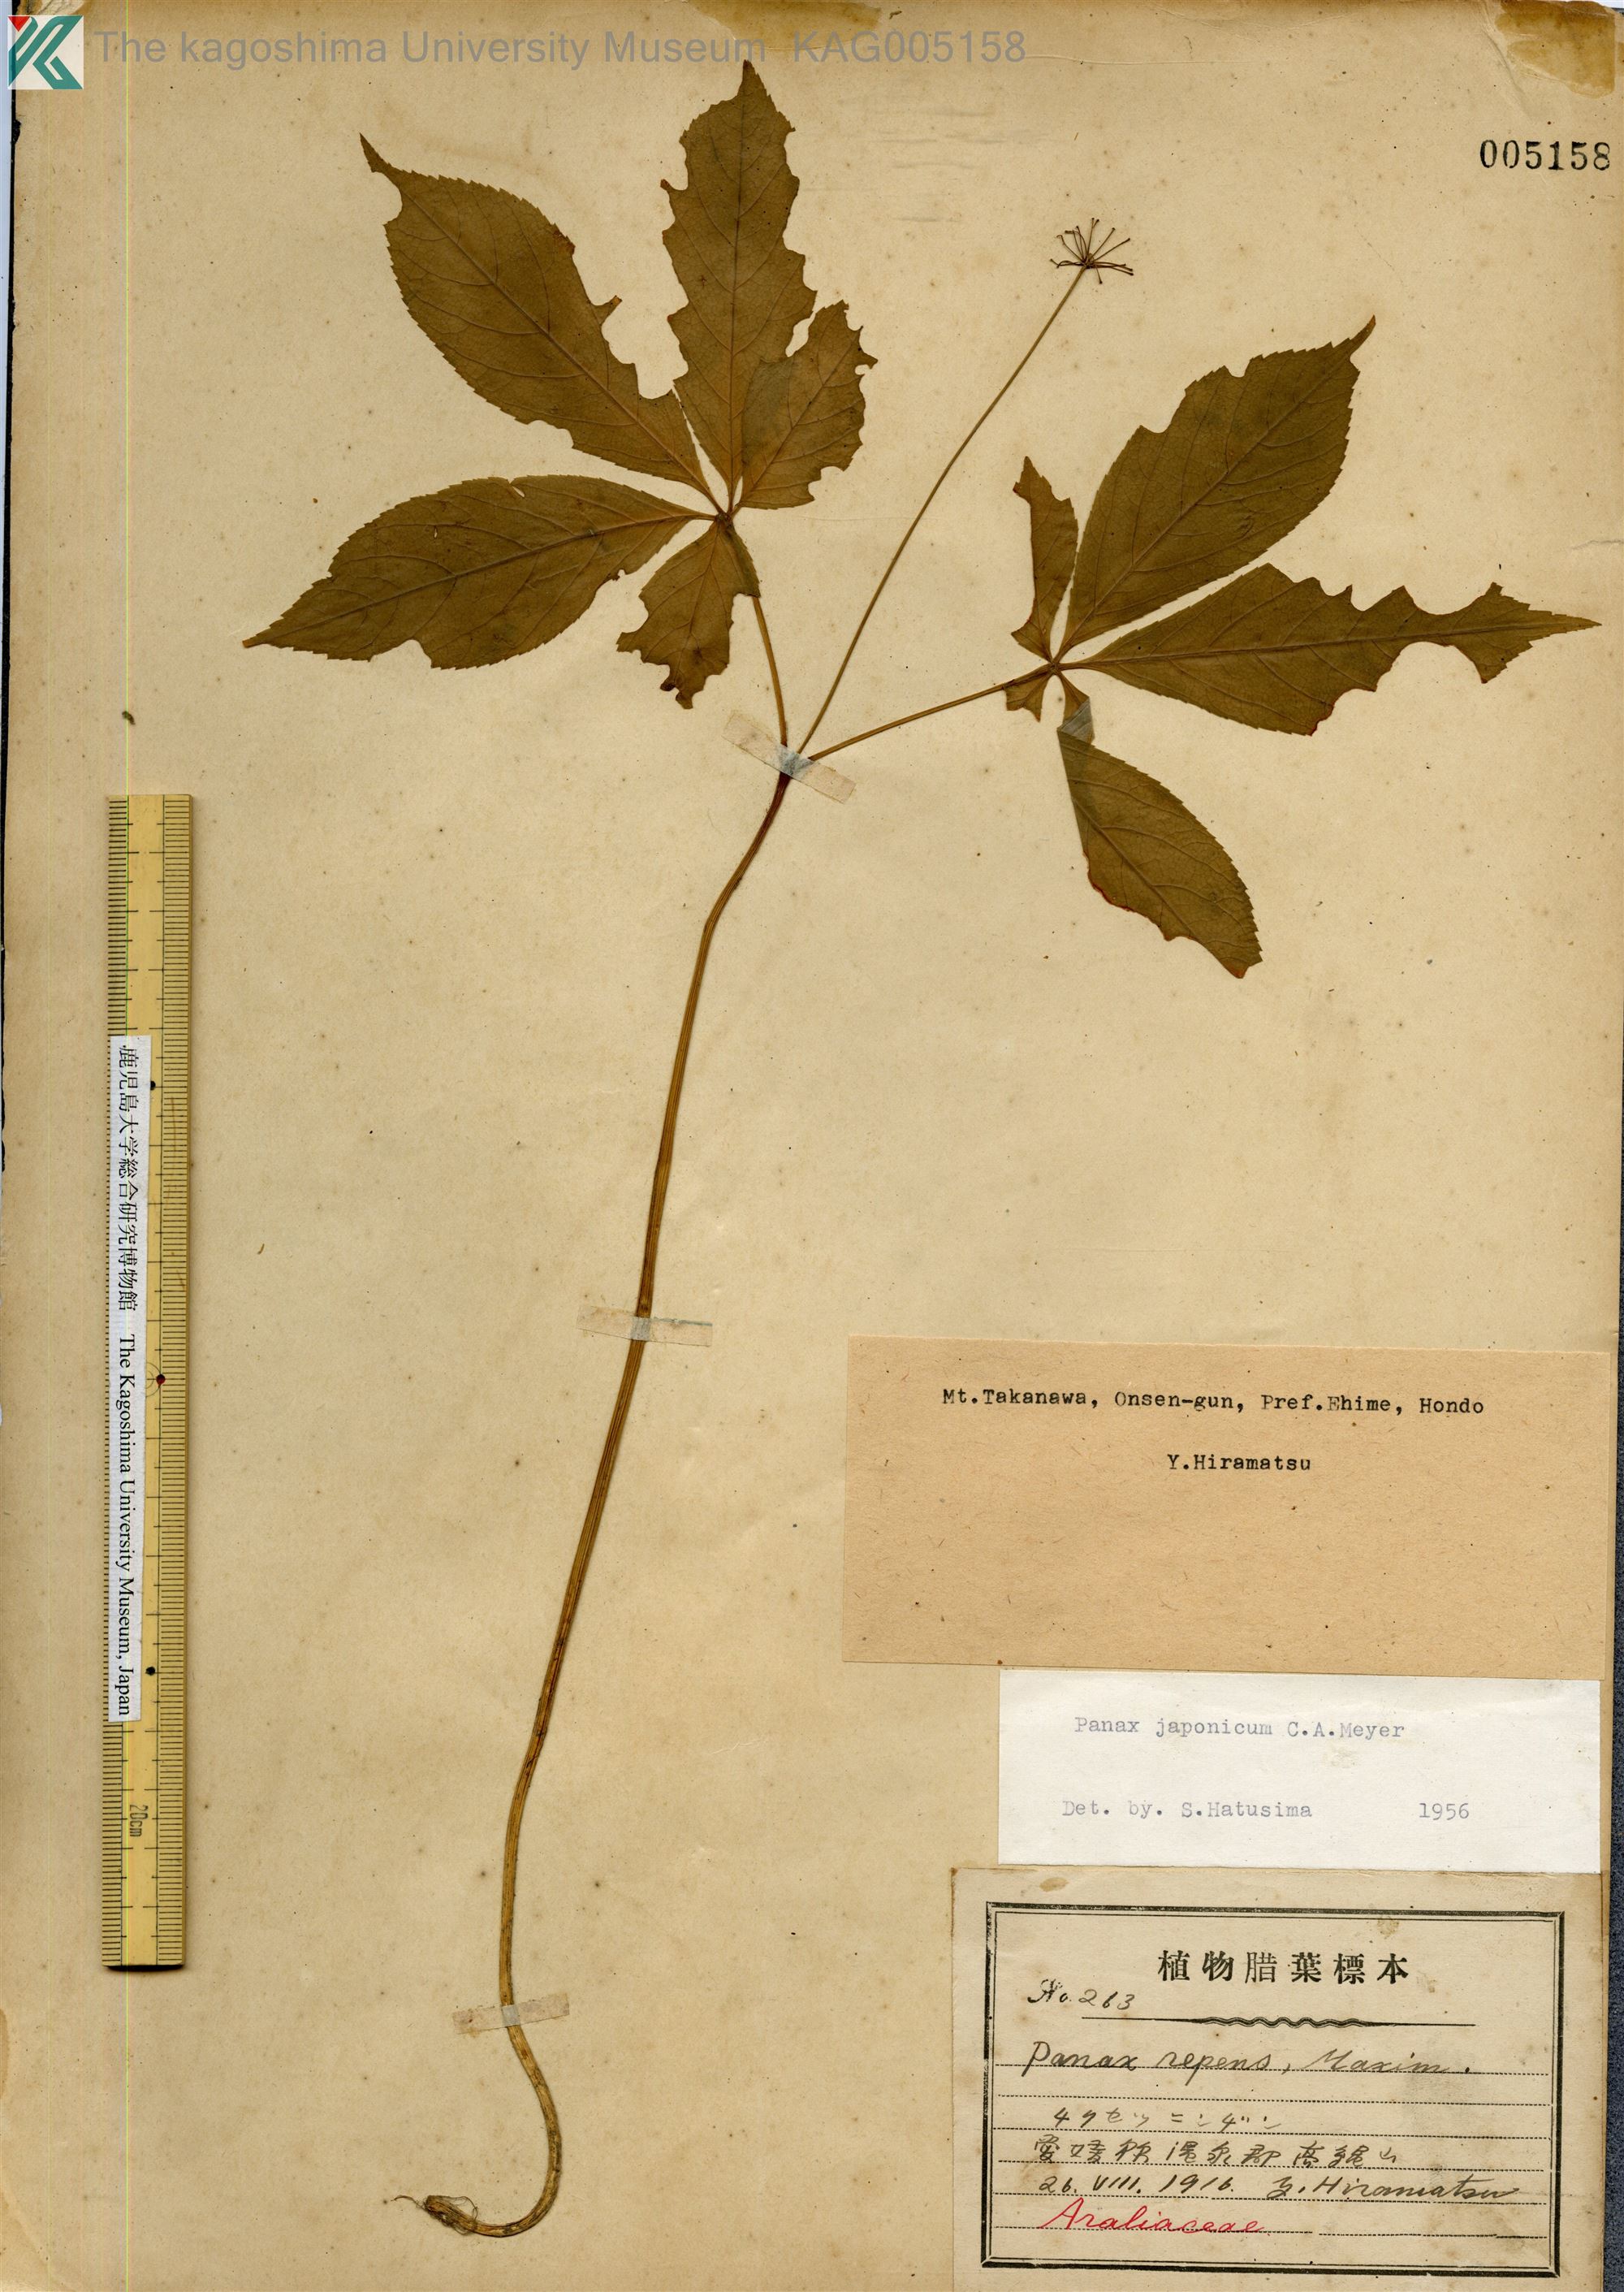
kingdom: Plantae
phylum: Tracheophyta
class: Magnoliopsida
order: Apiales
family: Araliaceae
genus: Panax
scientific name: Panax japonicus
